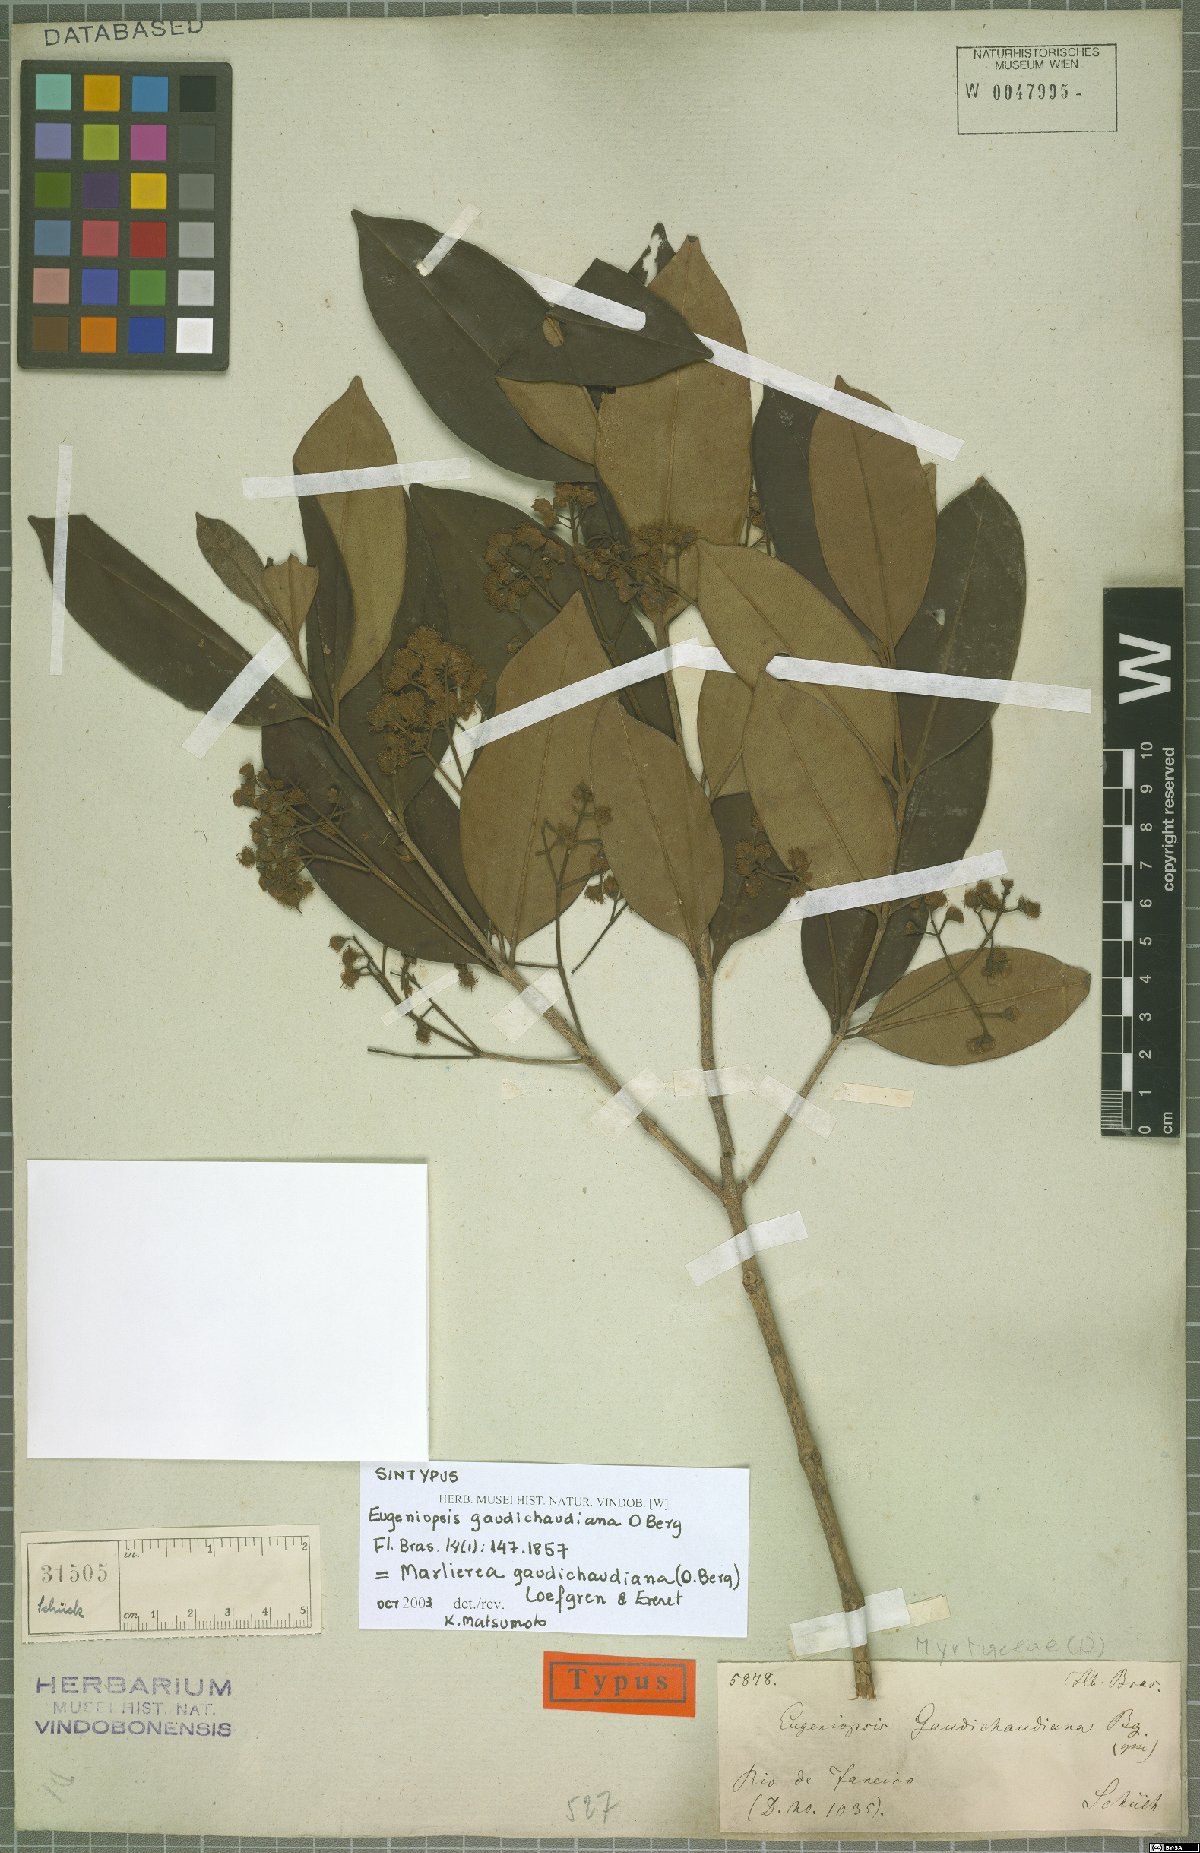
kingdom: Plantae
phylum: Tracheophyta
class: Magnoliopsida
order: Myrtales
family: Myrtaceae
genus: Marlierea
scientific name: Marlierea gaudichaudiana
